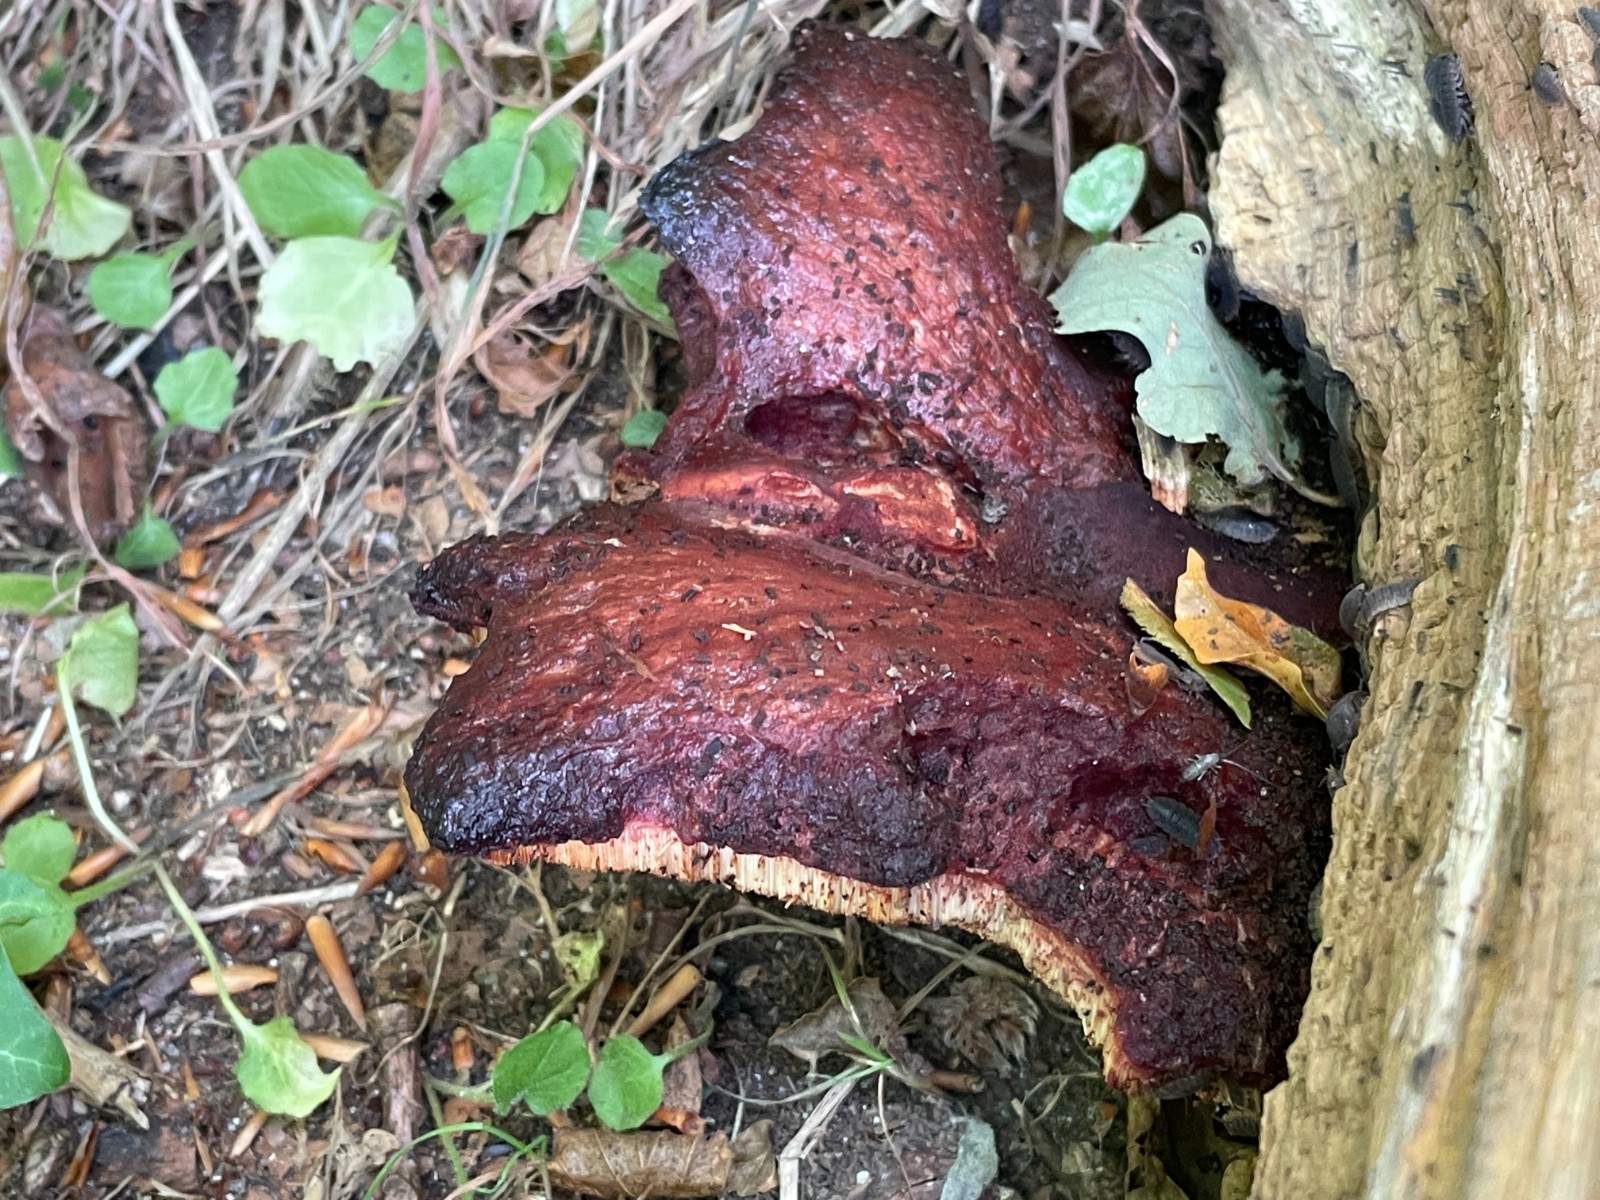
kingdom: Fungi
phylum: Basidiomycota
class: Agaricomycetes
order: Agaricales
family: Fistulinaceae
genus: Fistulina
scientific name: Fistulina hepatica
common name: oksetunge
